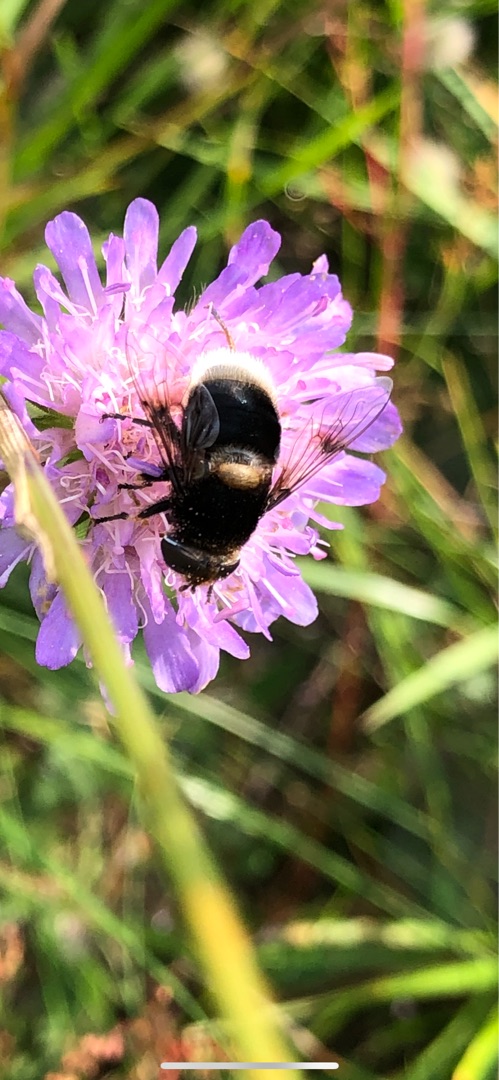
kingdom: Animalia
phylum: Arthropoda
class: Insecta
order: Diptera
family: Syrphidae
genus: Eristalis
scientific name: Eristalis intricaria
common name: Håret dyndflue
